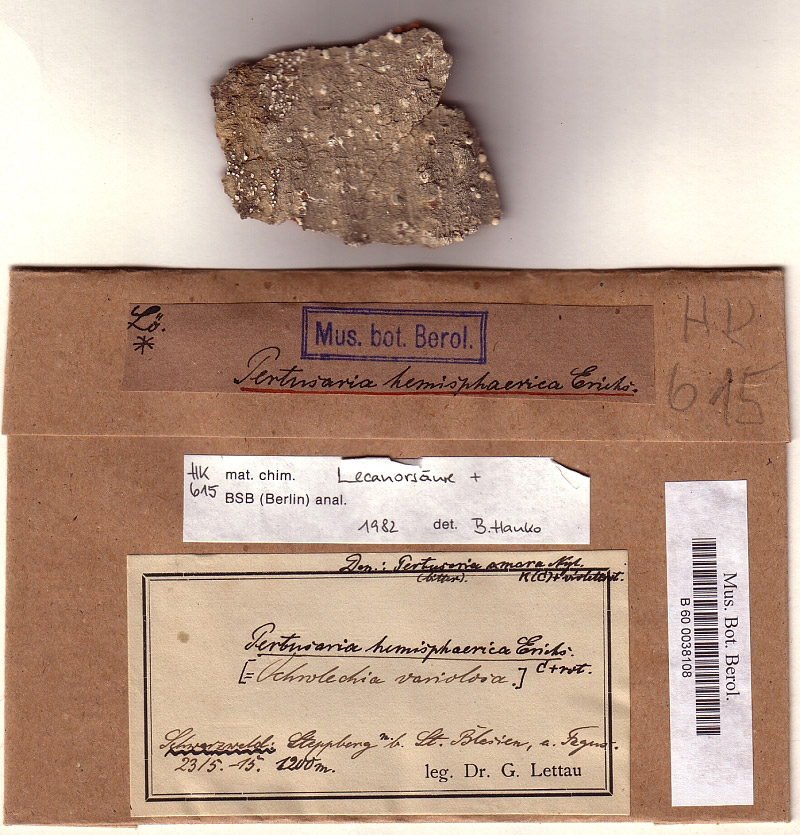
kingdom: Fungi
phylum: Ascomycota
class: Lecanoromycetes
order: Pertusariales
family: Varicellariaceae
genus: Varicellaria
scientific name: Varicellaria hemisphaerica
